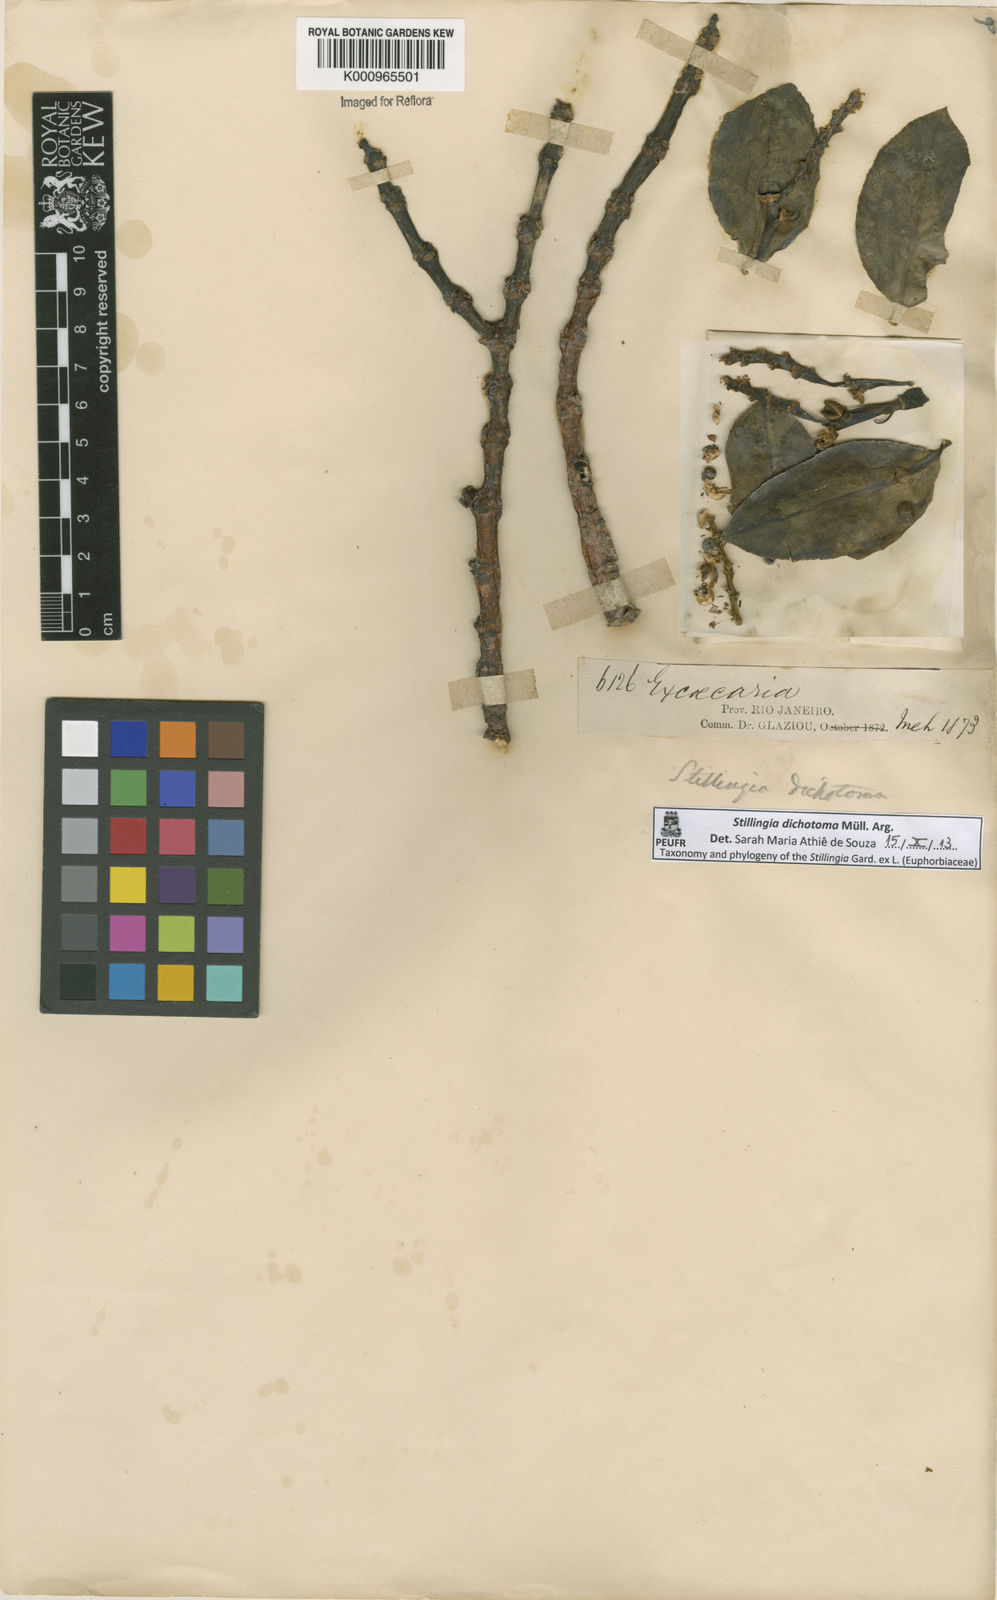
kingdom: Plantae
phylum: Tracheophyta
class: Magnoliopsida
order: Malpighiales
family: Euphorbiaceae
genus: Stillingia
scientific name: Stillingia
